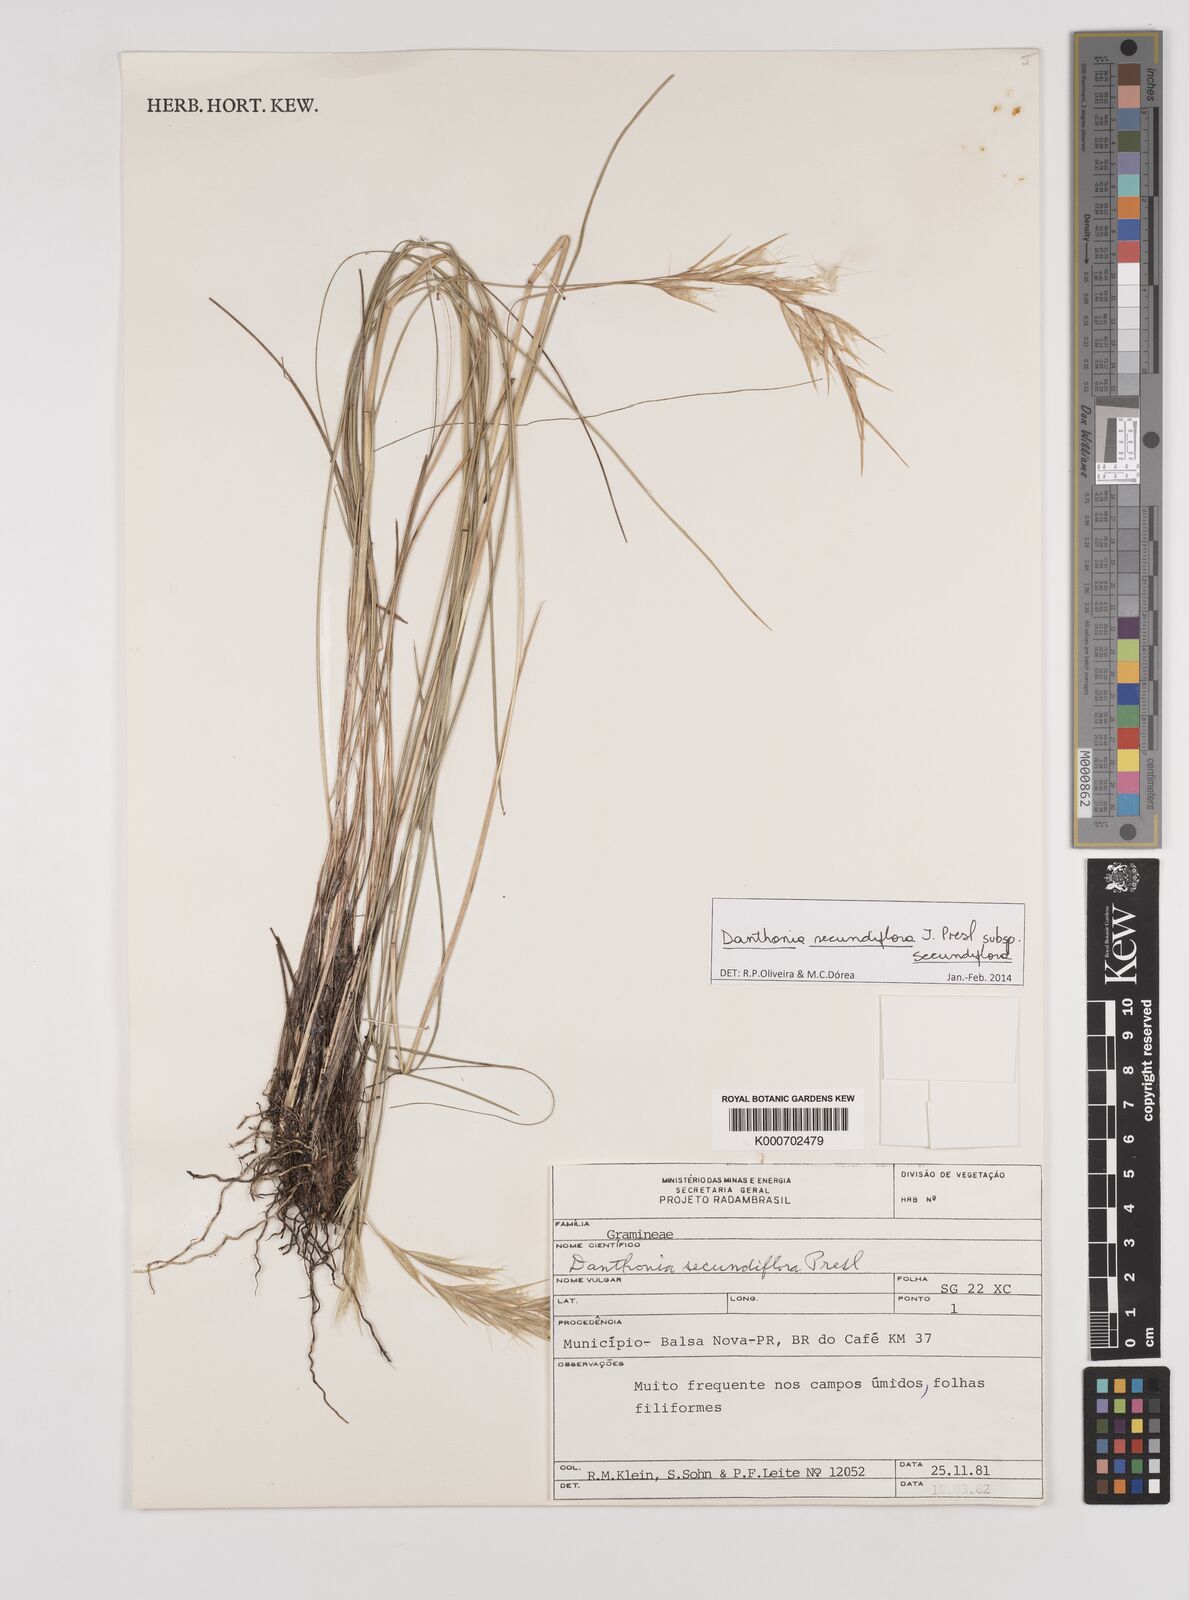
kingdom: Plantae
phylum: Tracheophyta
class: Liliopsida
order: Poales
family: Poaceae
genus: Danthonia
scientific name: Danthonia secundiflora
